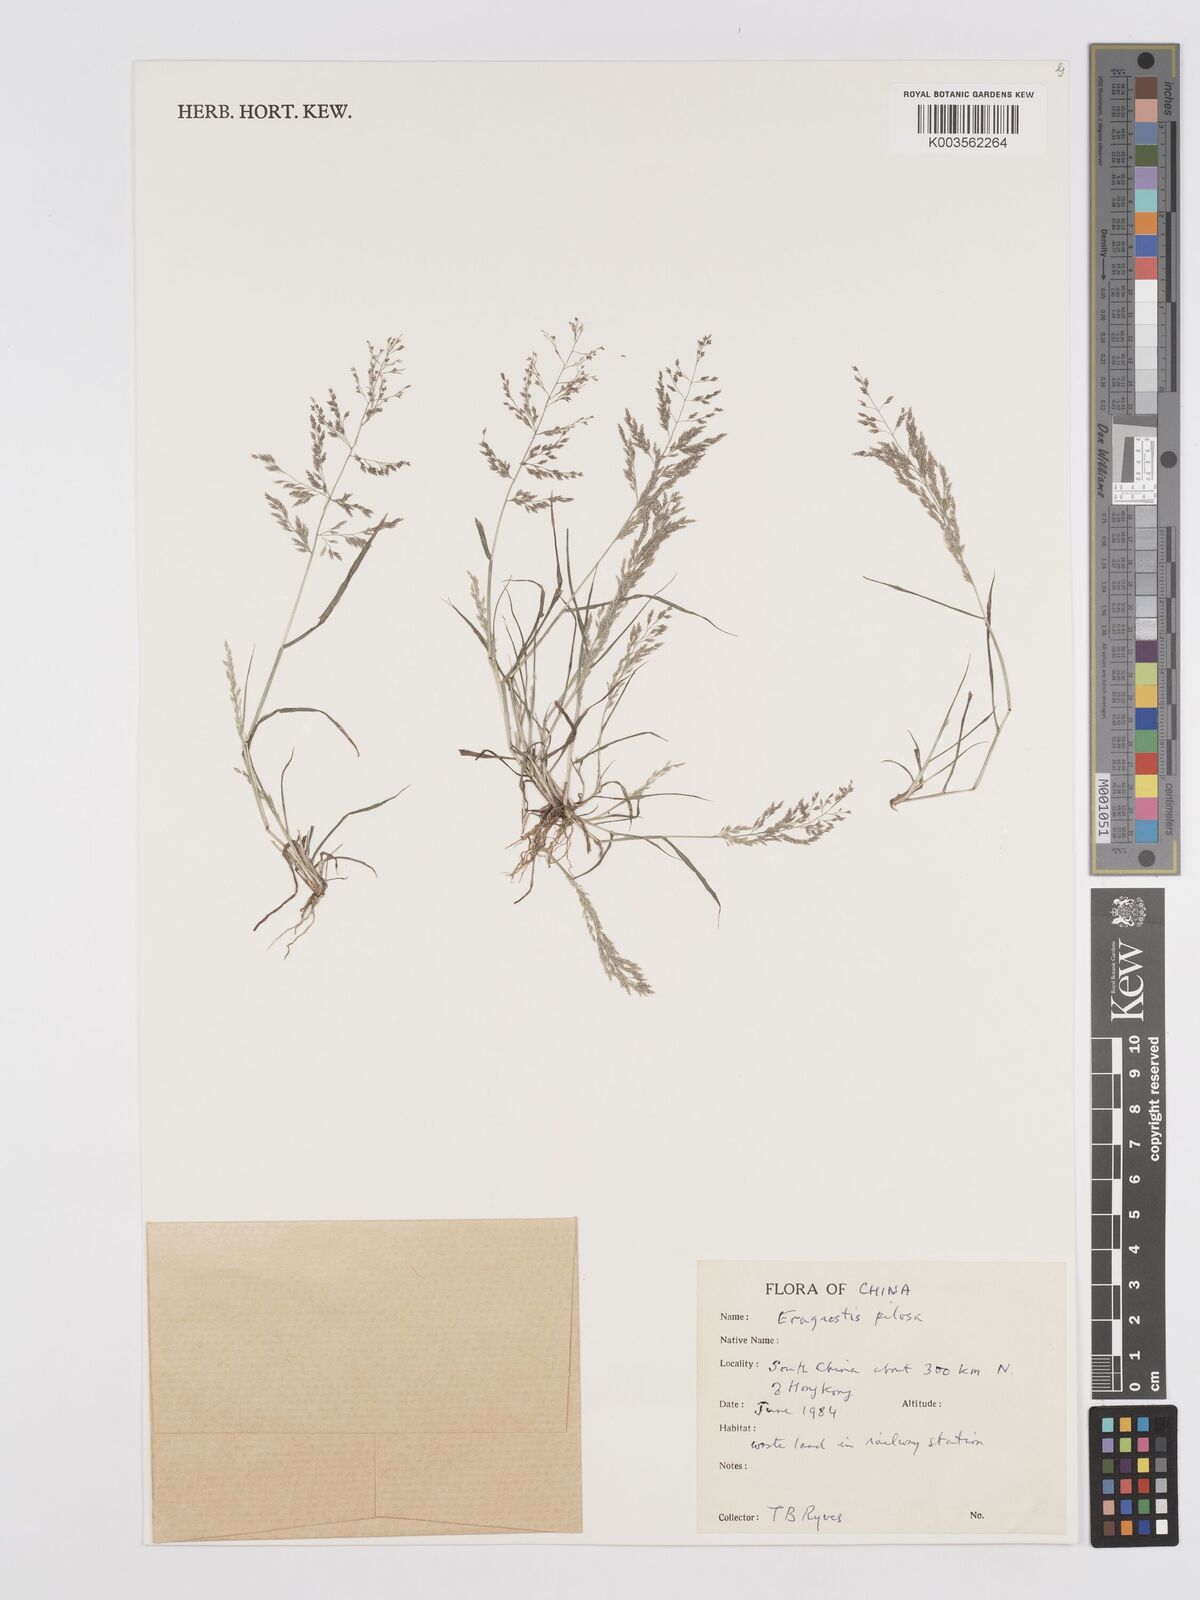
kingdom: Plantae
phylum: Tracheophyta
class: Liliopsida
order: Poales
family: Poaceae
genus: Eragrostis
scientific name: Eragrostis pilosa
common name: Indian lovegrass
